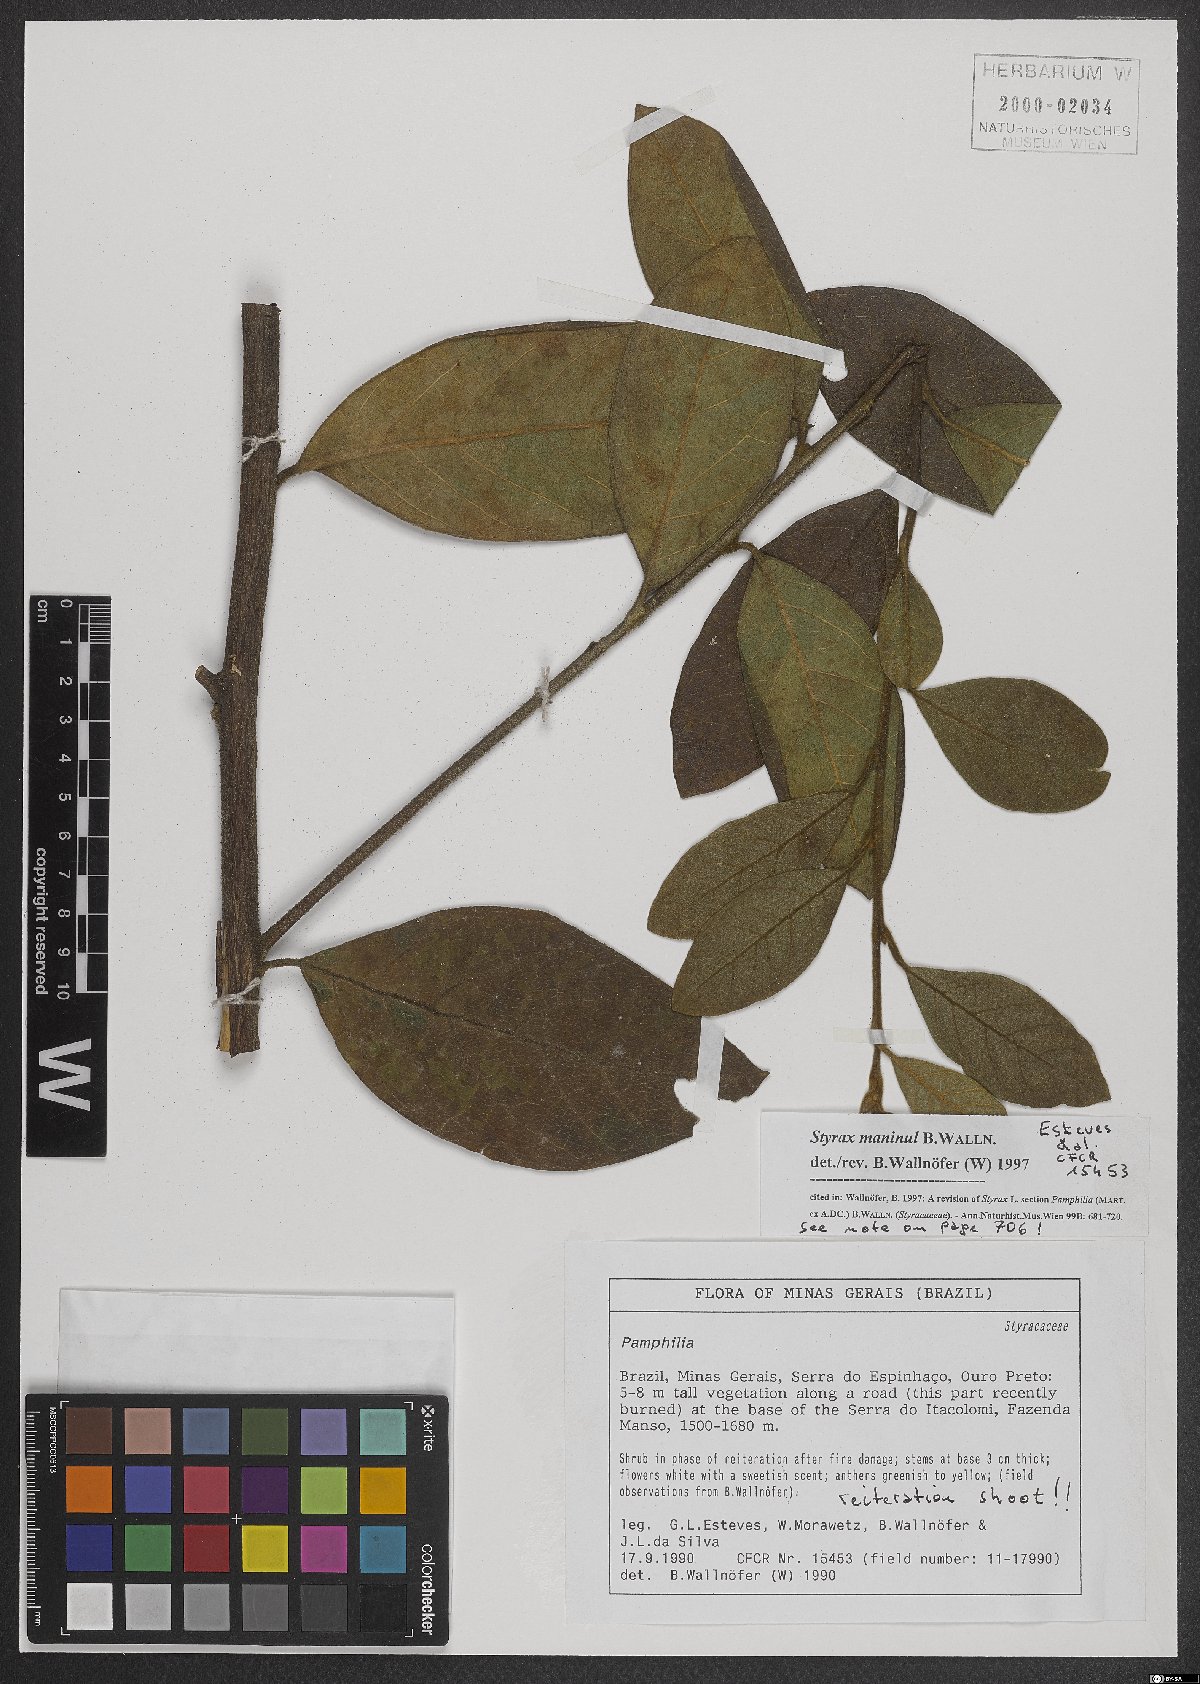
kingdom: Plantae
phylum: Tracheophyta
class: Magnoliopsida
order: Ericales
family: Styracaceae
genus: Styrax
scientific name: Styrax maninul
